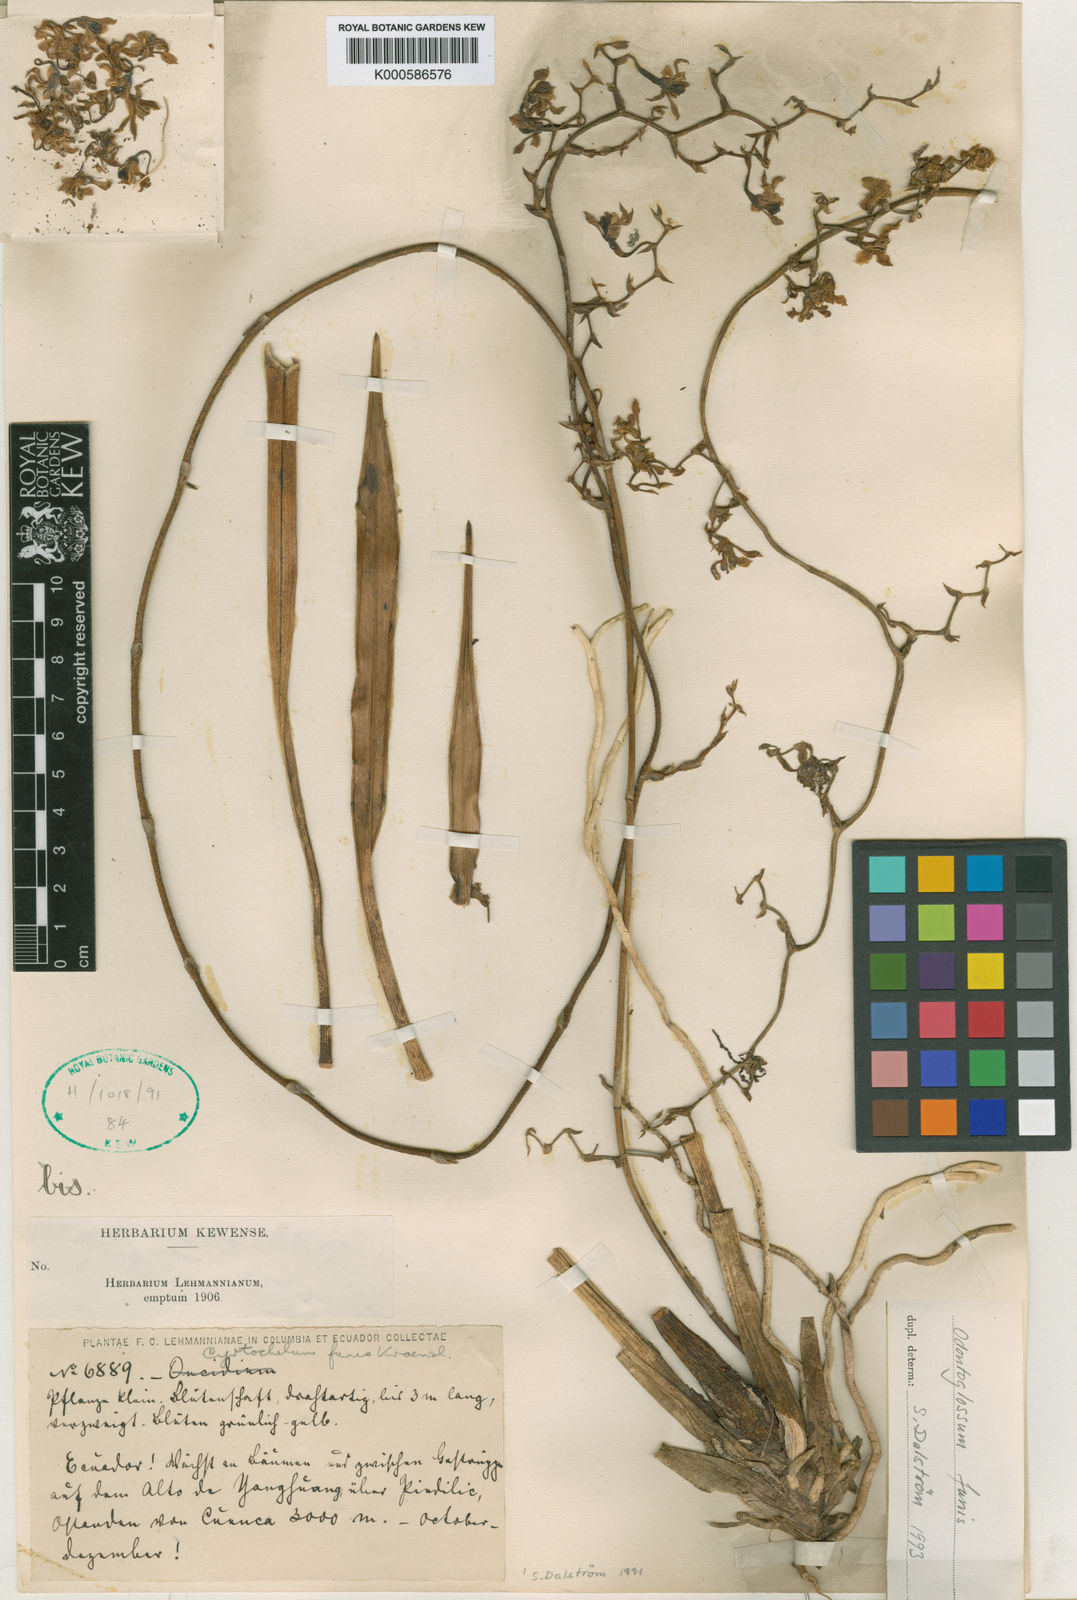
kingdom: Plantae
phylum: Tracheophyta
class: Liliopsida
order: Asparagales
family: Orchidaceae
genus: Cyrtochilum
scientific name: Cyrtochilum funis
